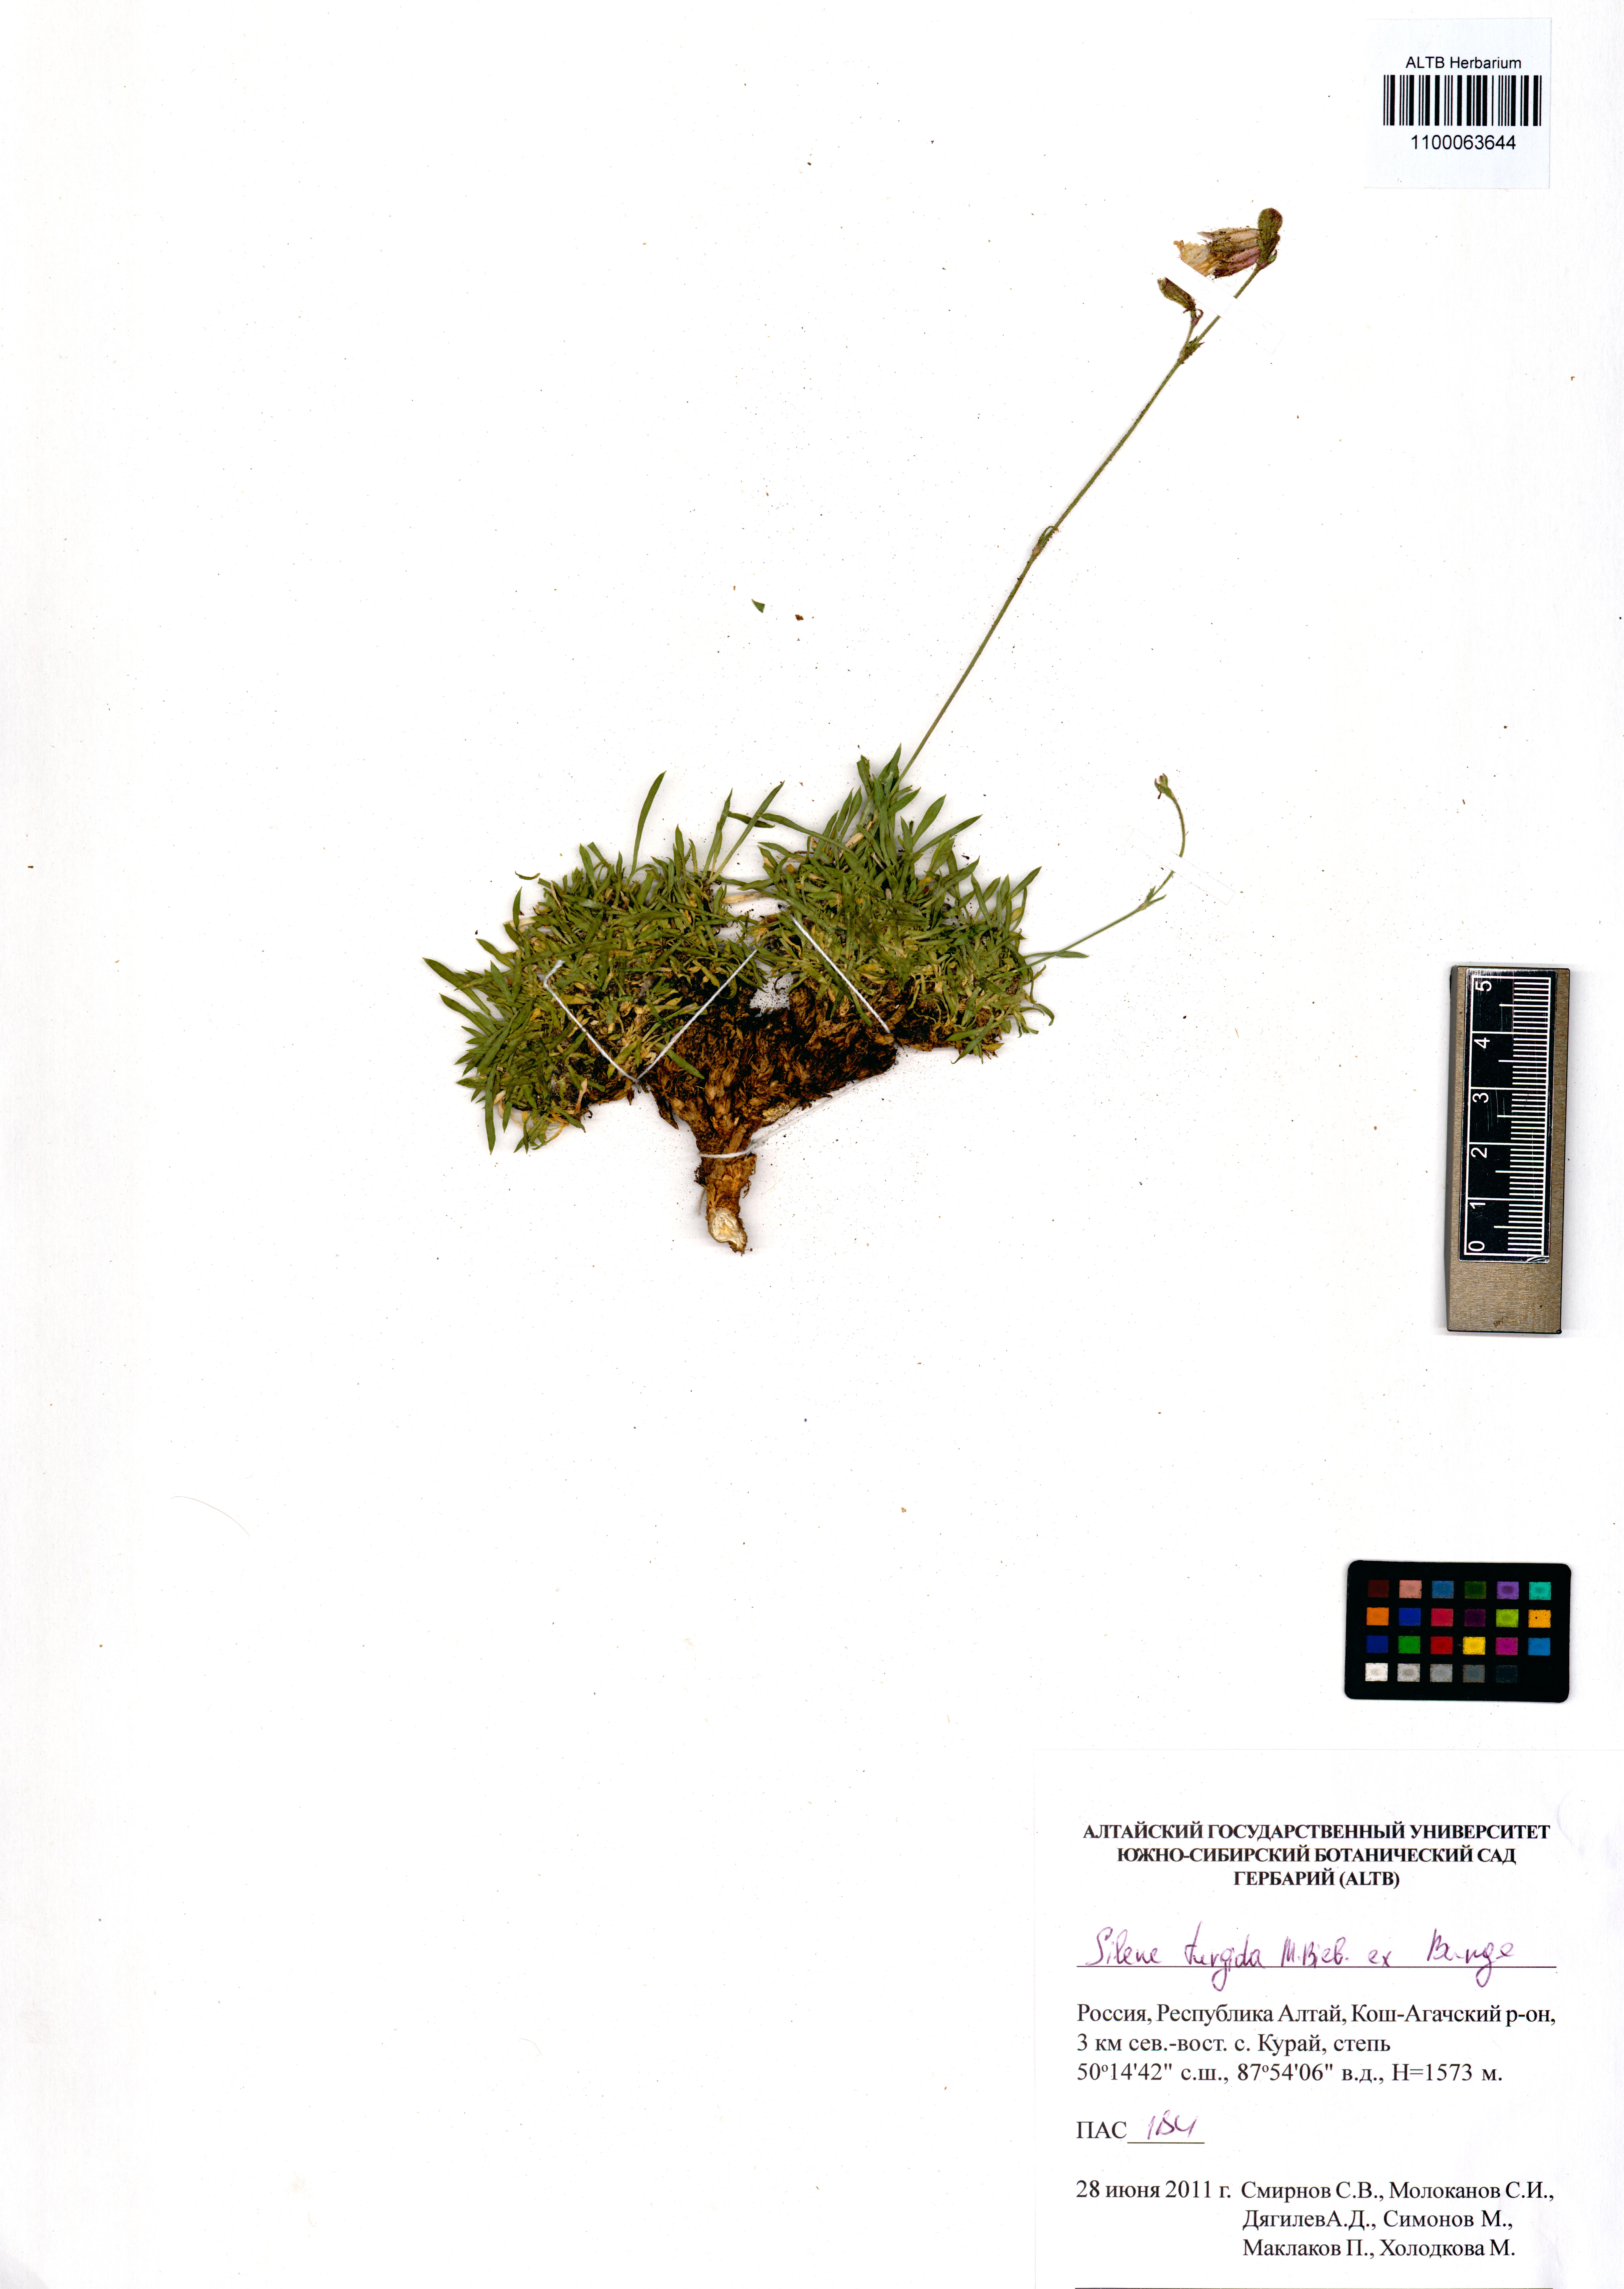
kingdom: Plantae
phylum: Tracheophyta
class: Magnoliopsida
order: Caryophyllales
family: Caryophyllaceae
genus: Silene
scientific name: Silene turgida
